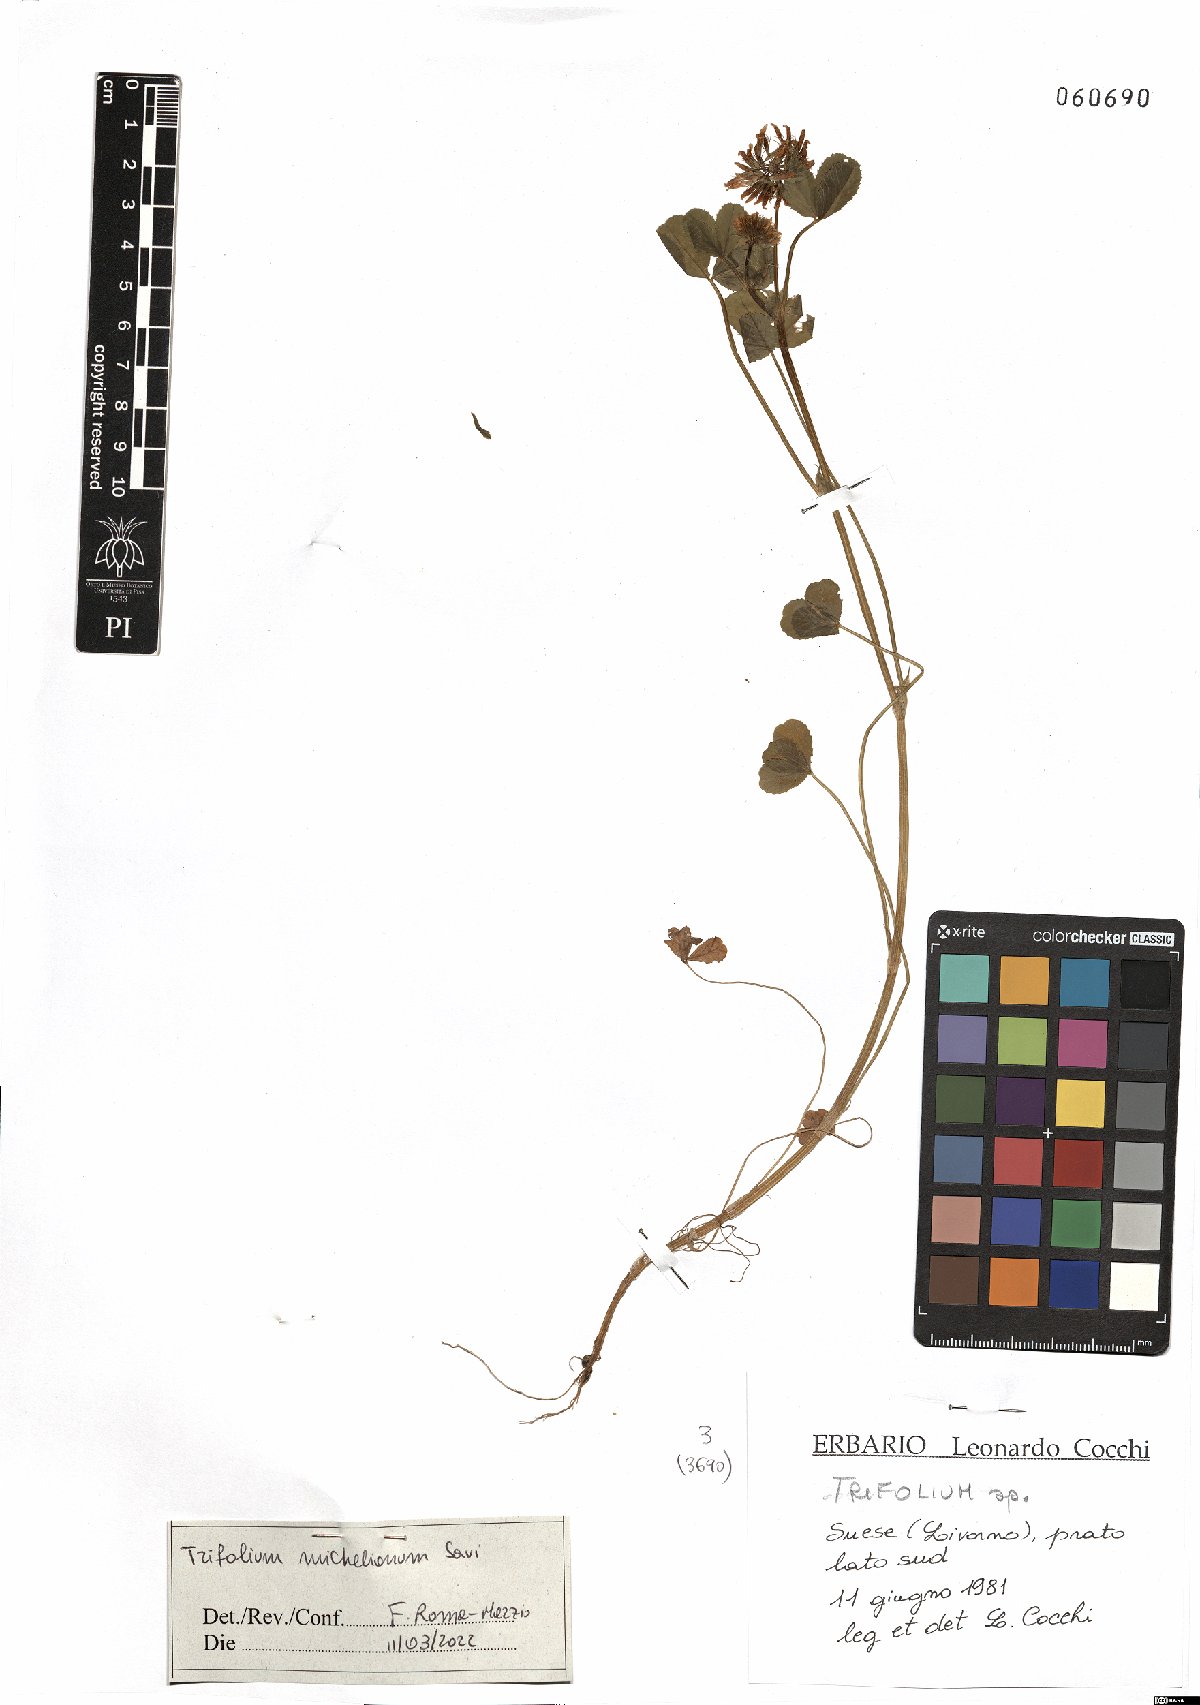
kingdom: Plantae
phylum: Tracheophyta
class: Magnoliopsida
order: Fabales
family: Fabaceae
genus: Trifolium
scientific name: Trifolium michelianum
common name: Bigflower clover
